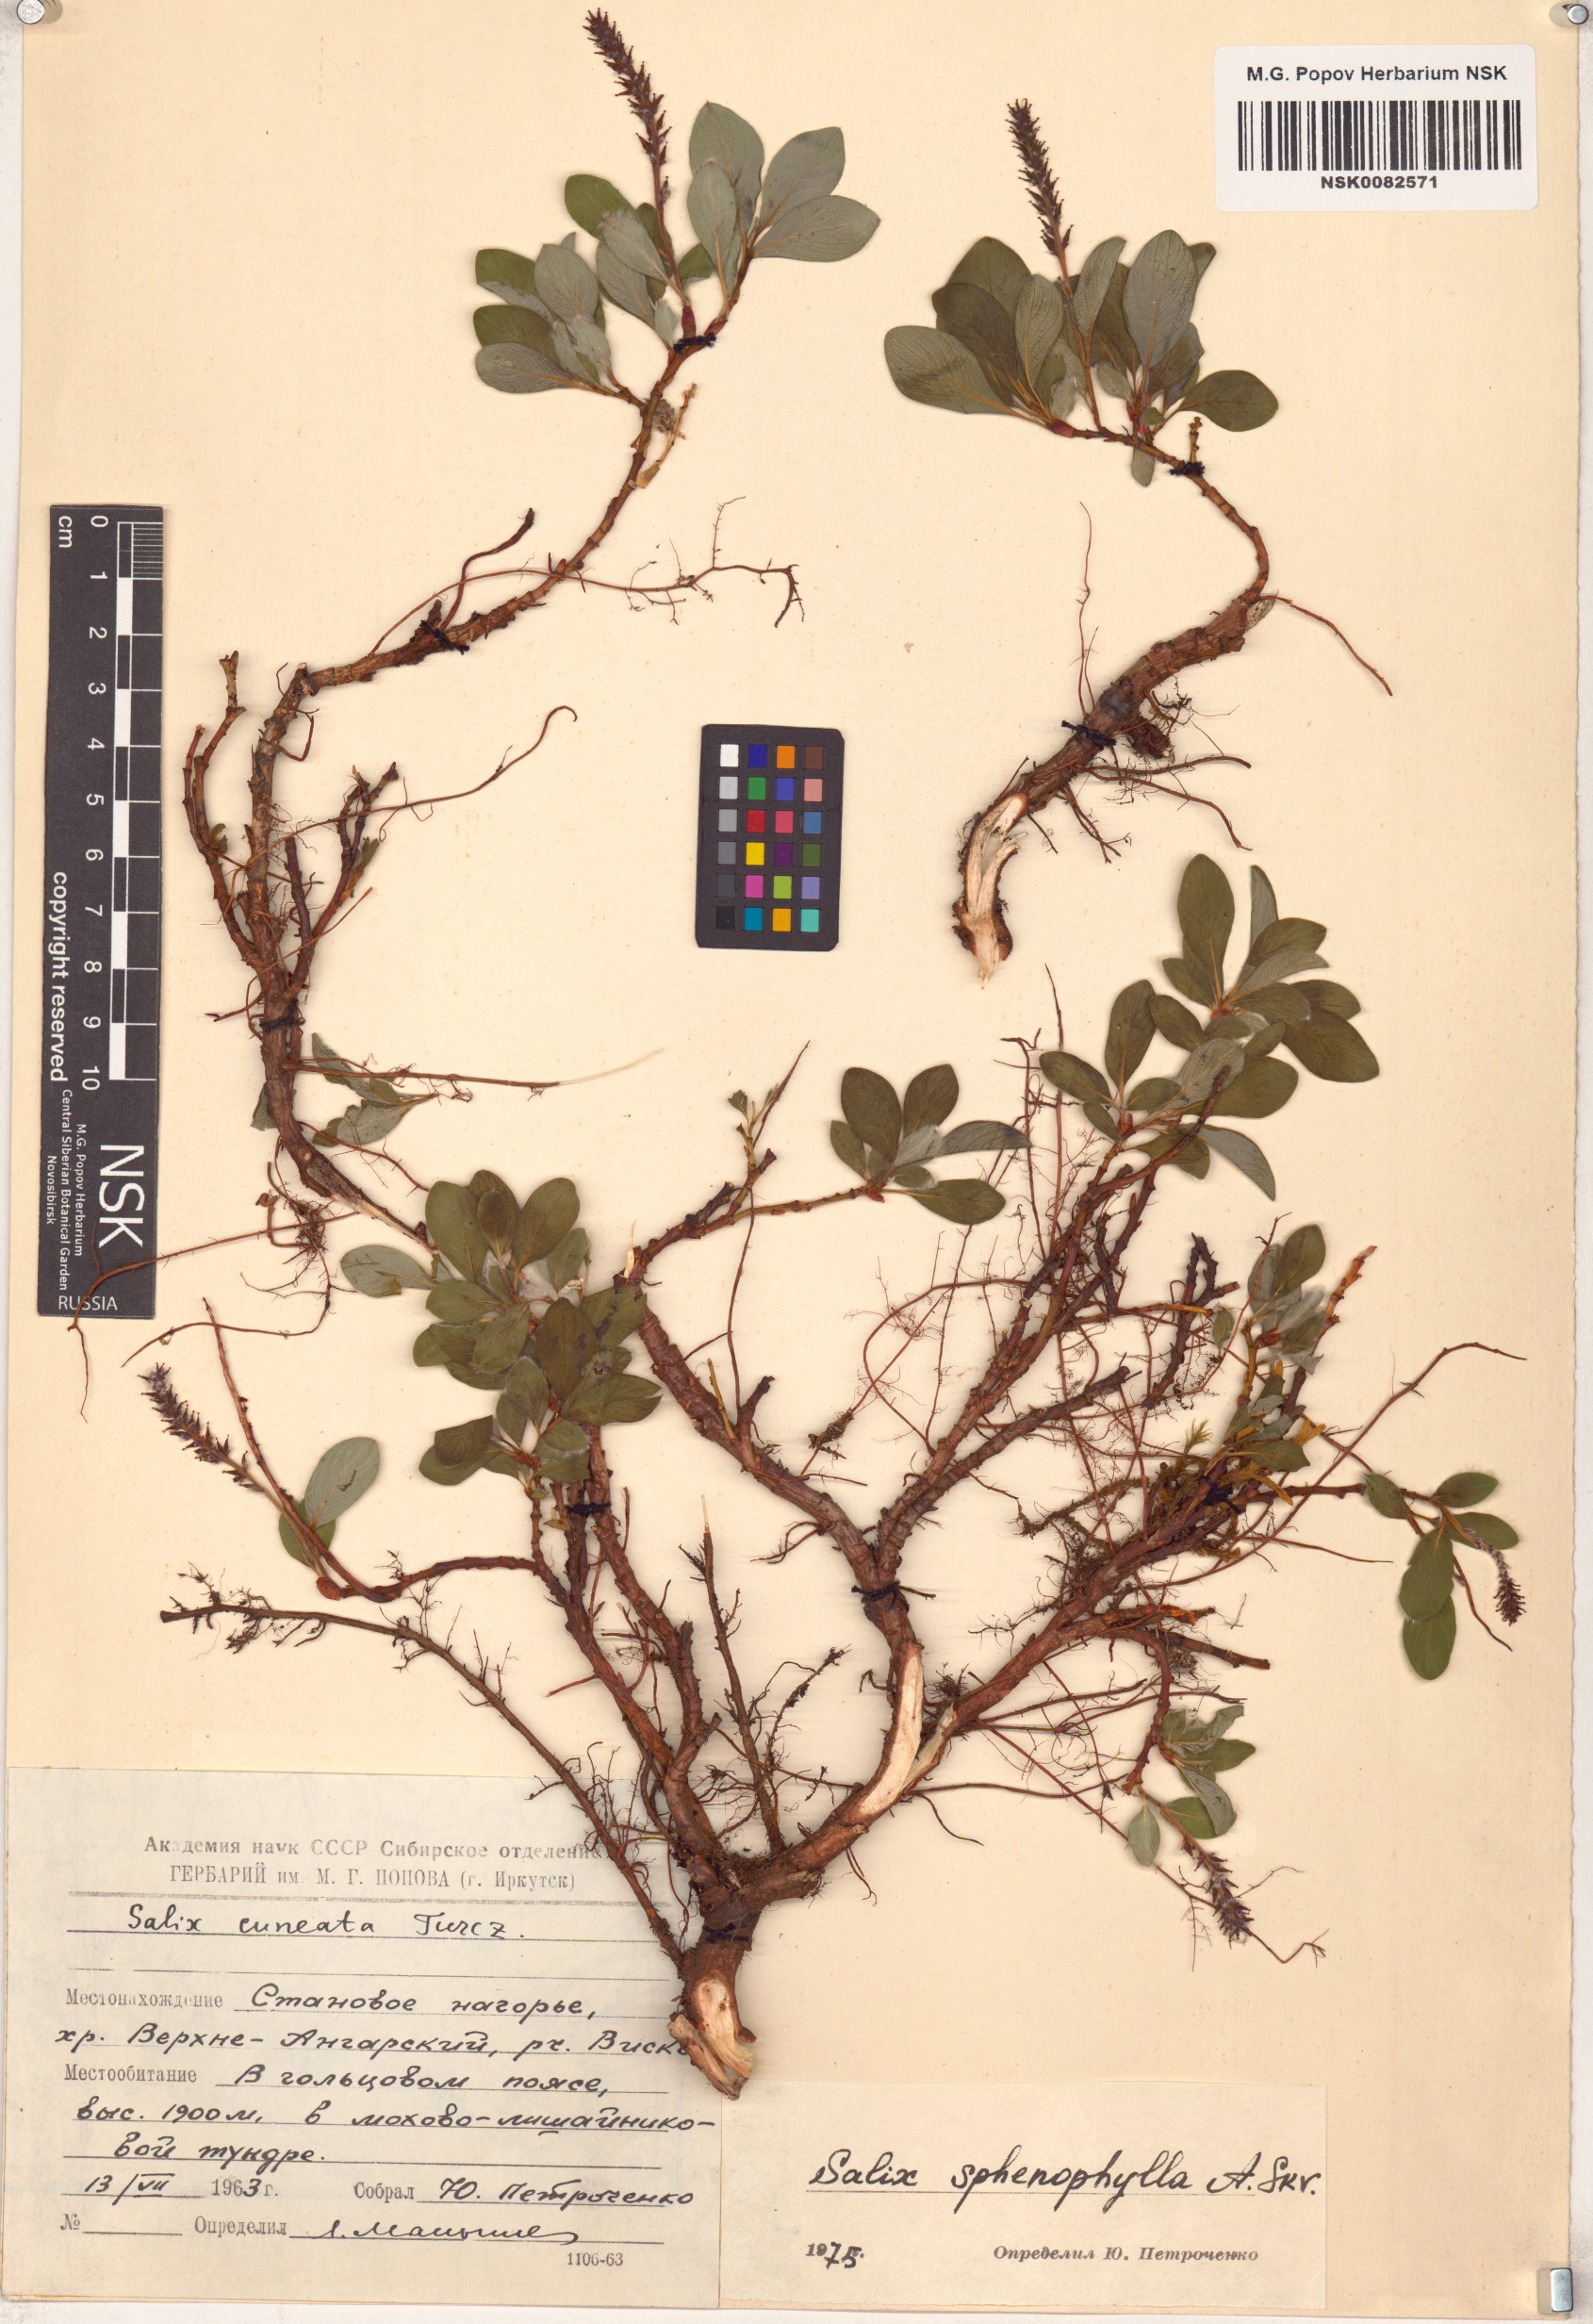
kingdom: Plantae
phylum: Tracheophyta
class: Magnoliopsida
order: Malpighiales
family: Salicaceae
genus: Salix
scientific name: Salix sphenophylla
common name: Wedge-leaved willow
